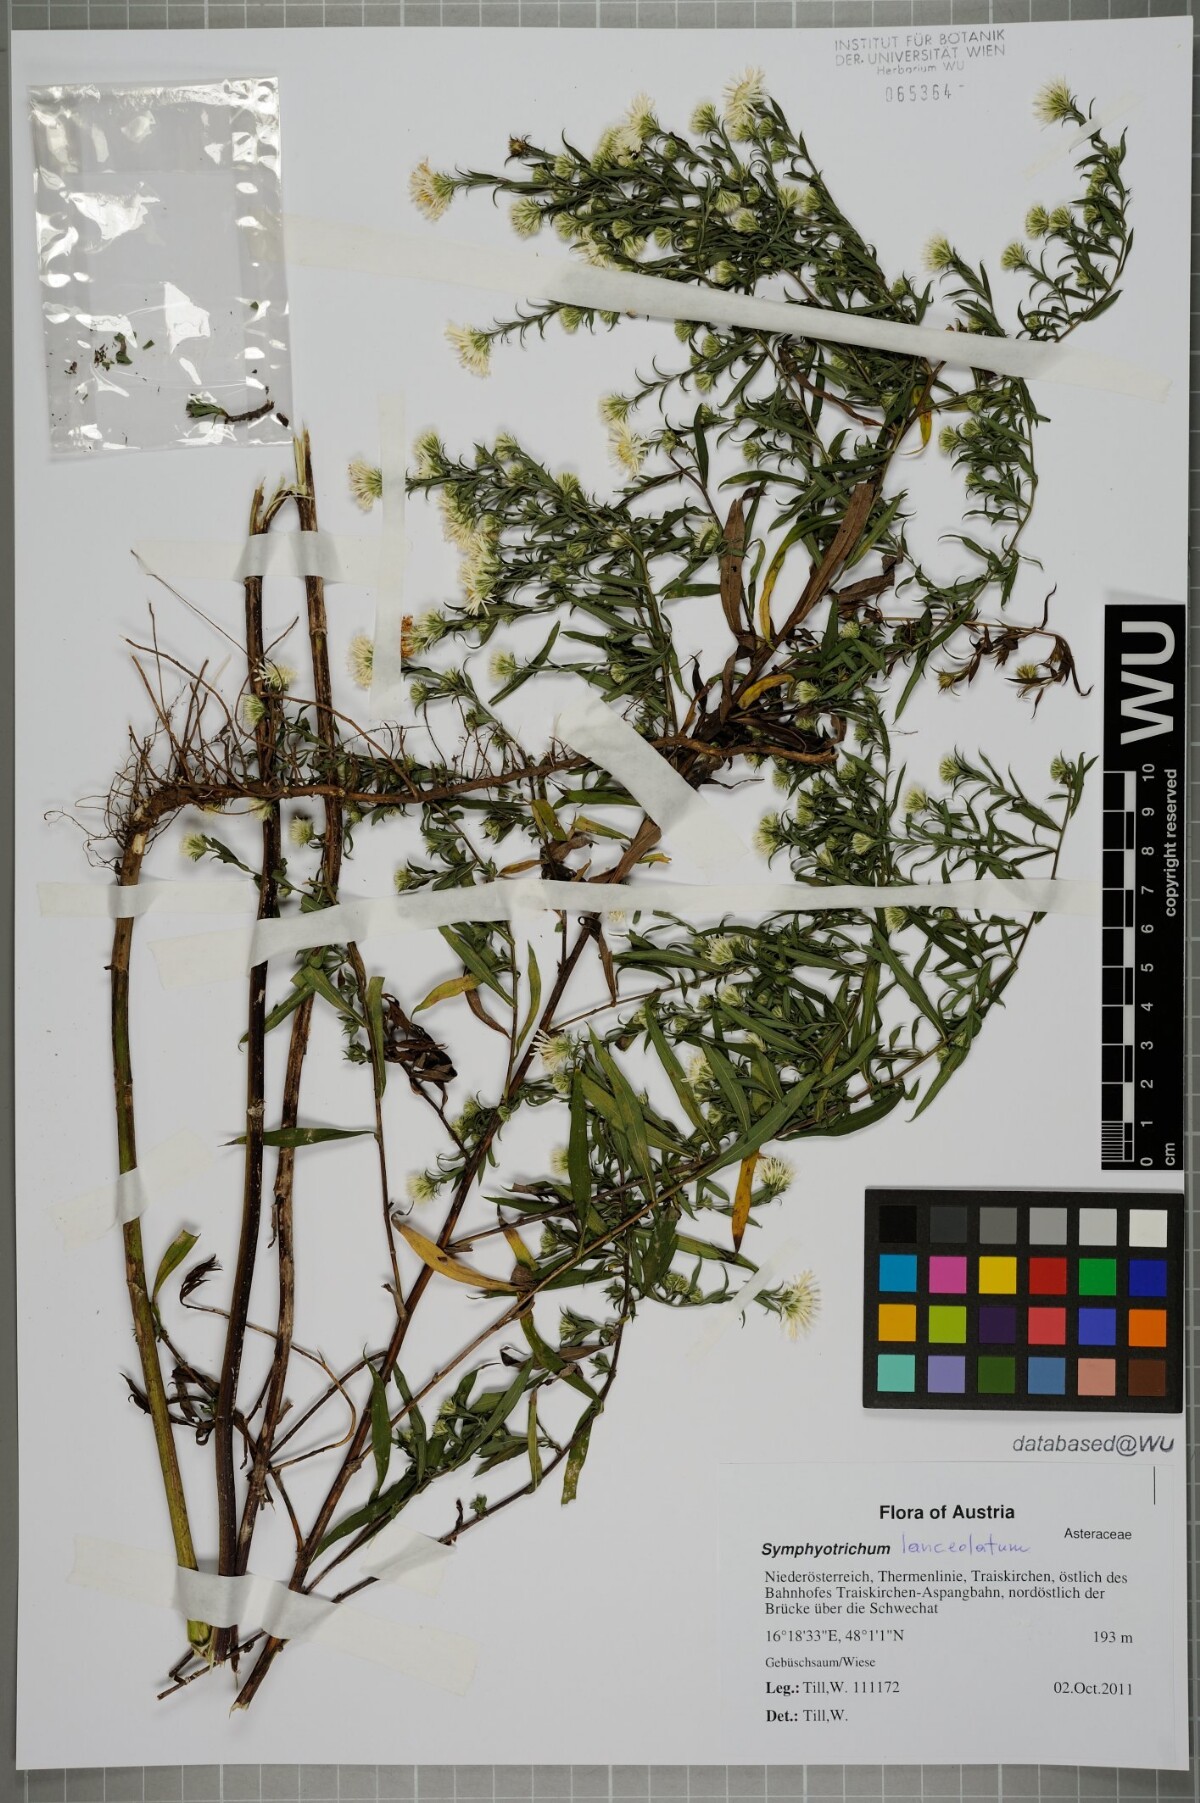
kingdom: Plantae
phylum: Tracheophyta
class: Magnoliopsida
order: Asterales
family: Asteraceae
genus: Symphyotrichum
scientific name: Symphyotrichum lanceolatum
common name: Panicled aster
